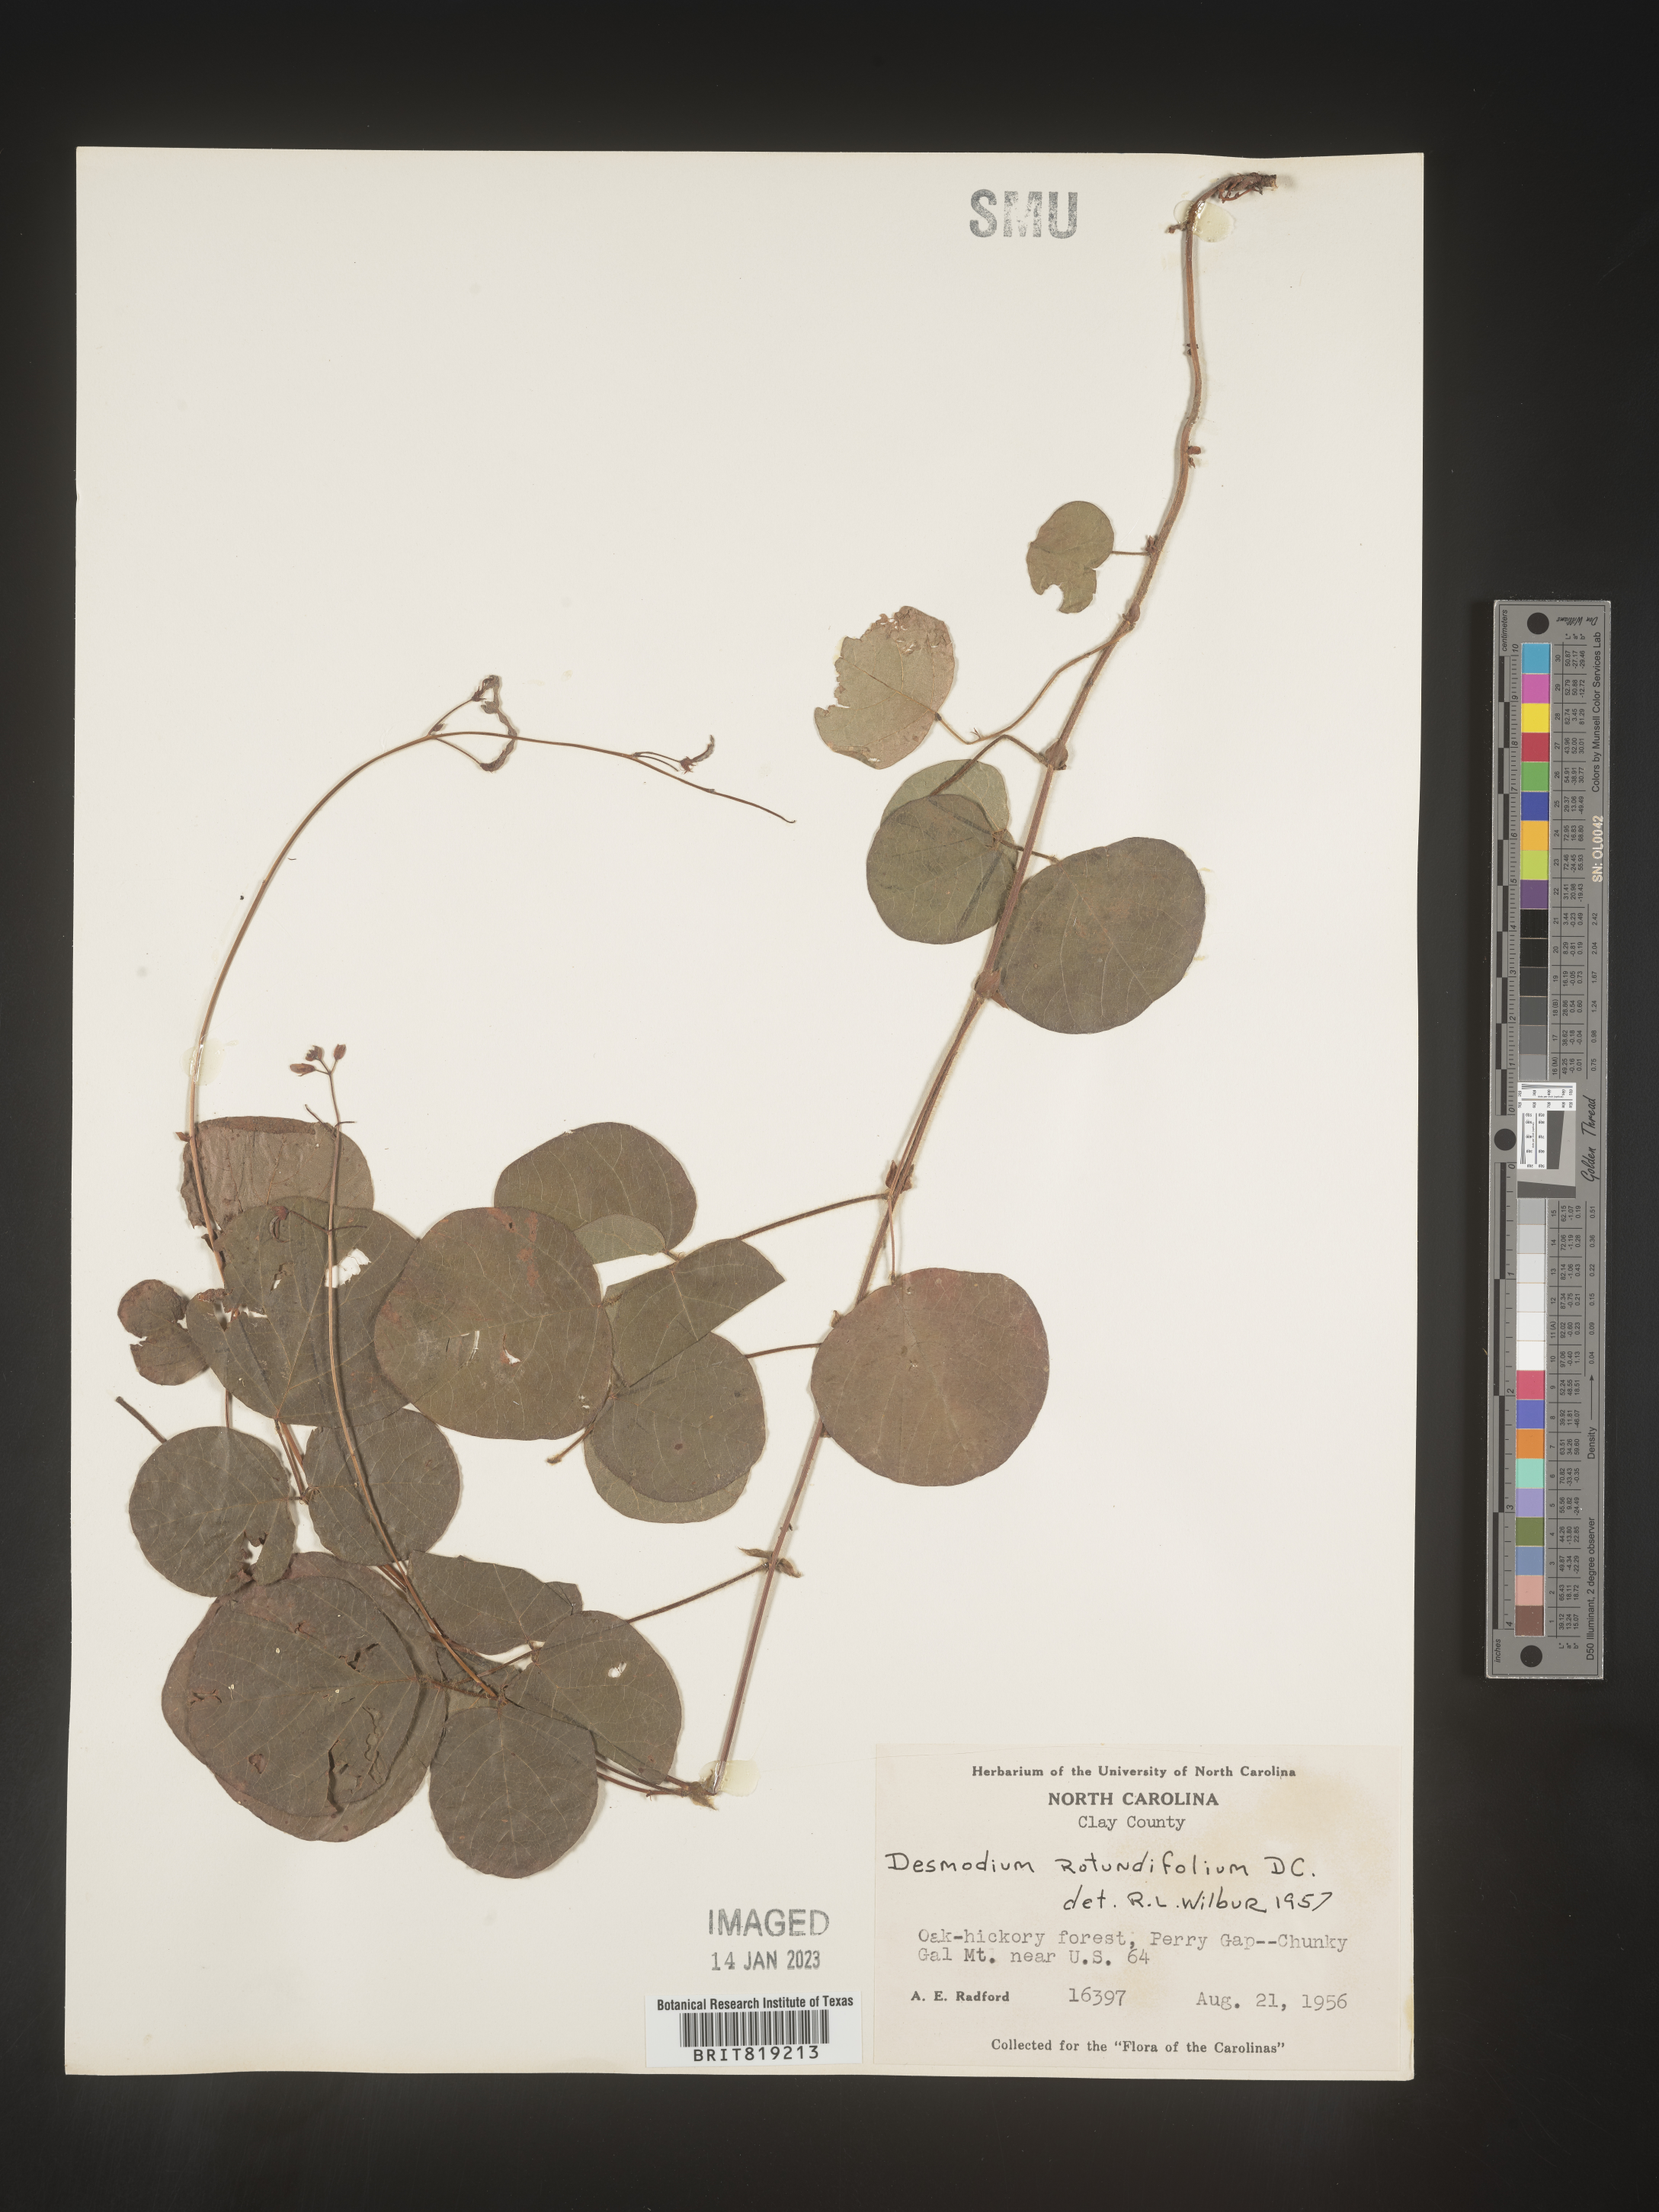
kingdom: Plantae
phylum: Tracheophyta
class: Magnoliopsida
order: Fabales
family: Fabaceae
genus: Desmodium
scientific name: Desmodium rotundifolium
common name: Dollarleaf
